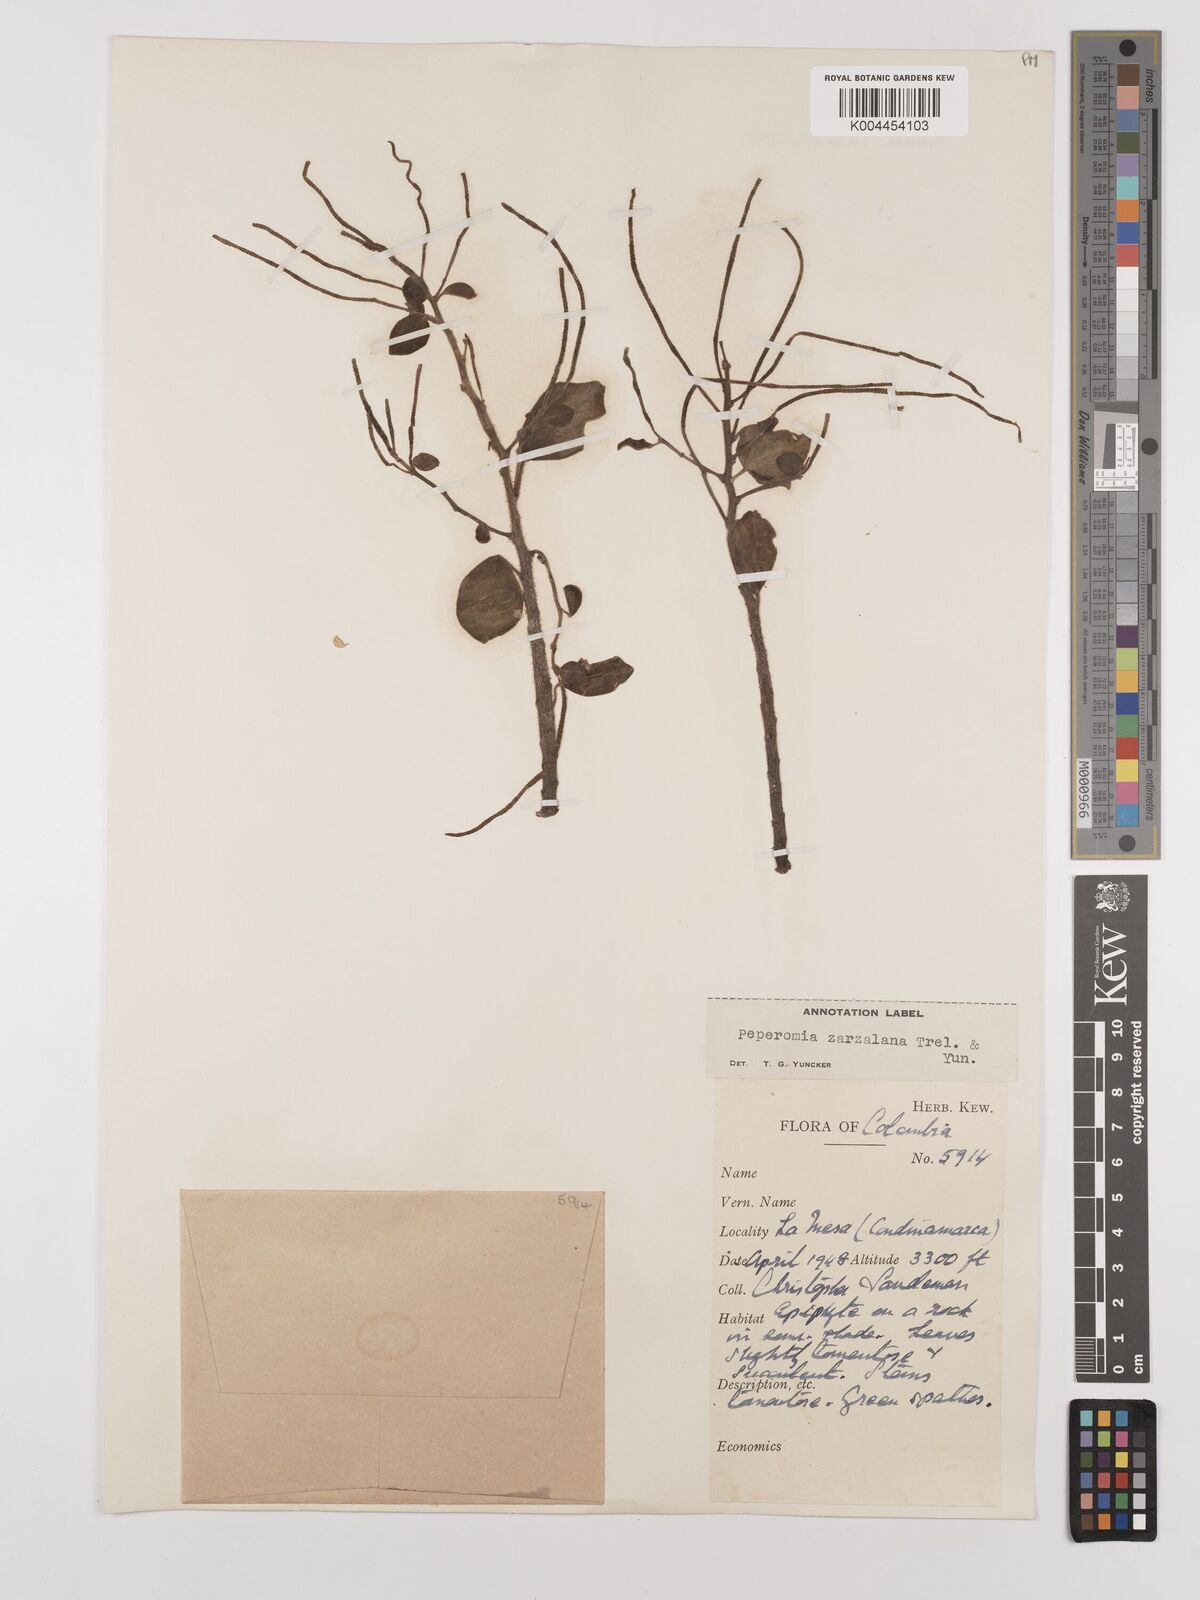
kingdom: Plantae
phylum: Tracheophyta
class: Magnoliopsida
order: Piperales
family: Piperaceae
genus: Peperomia
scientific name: Peperomia zarzalana
